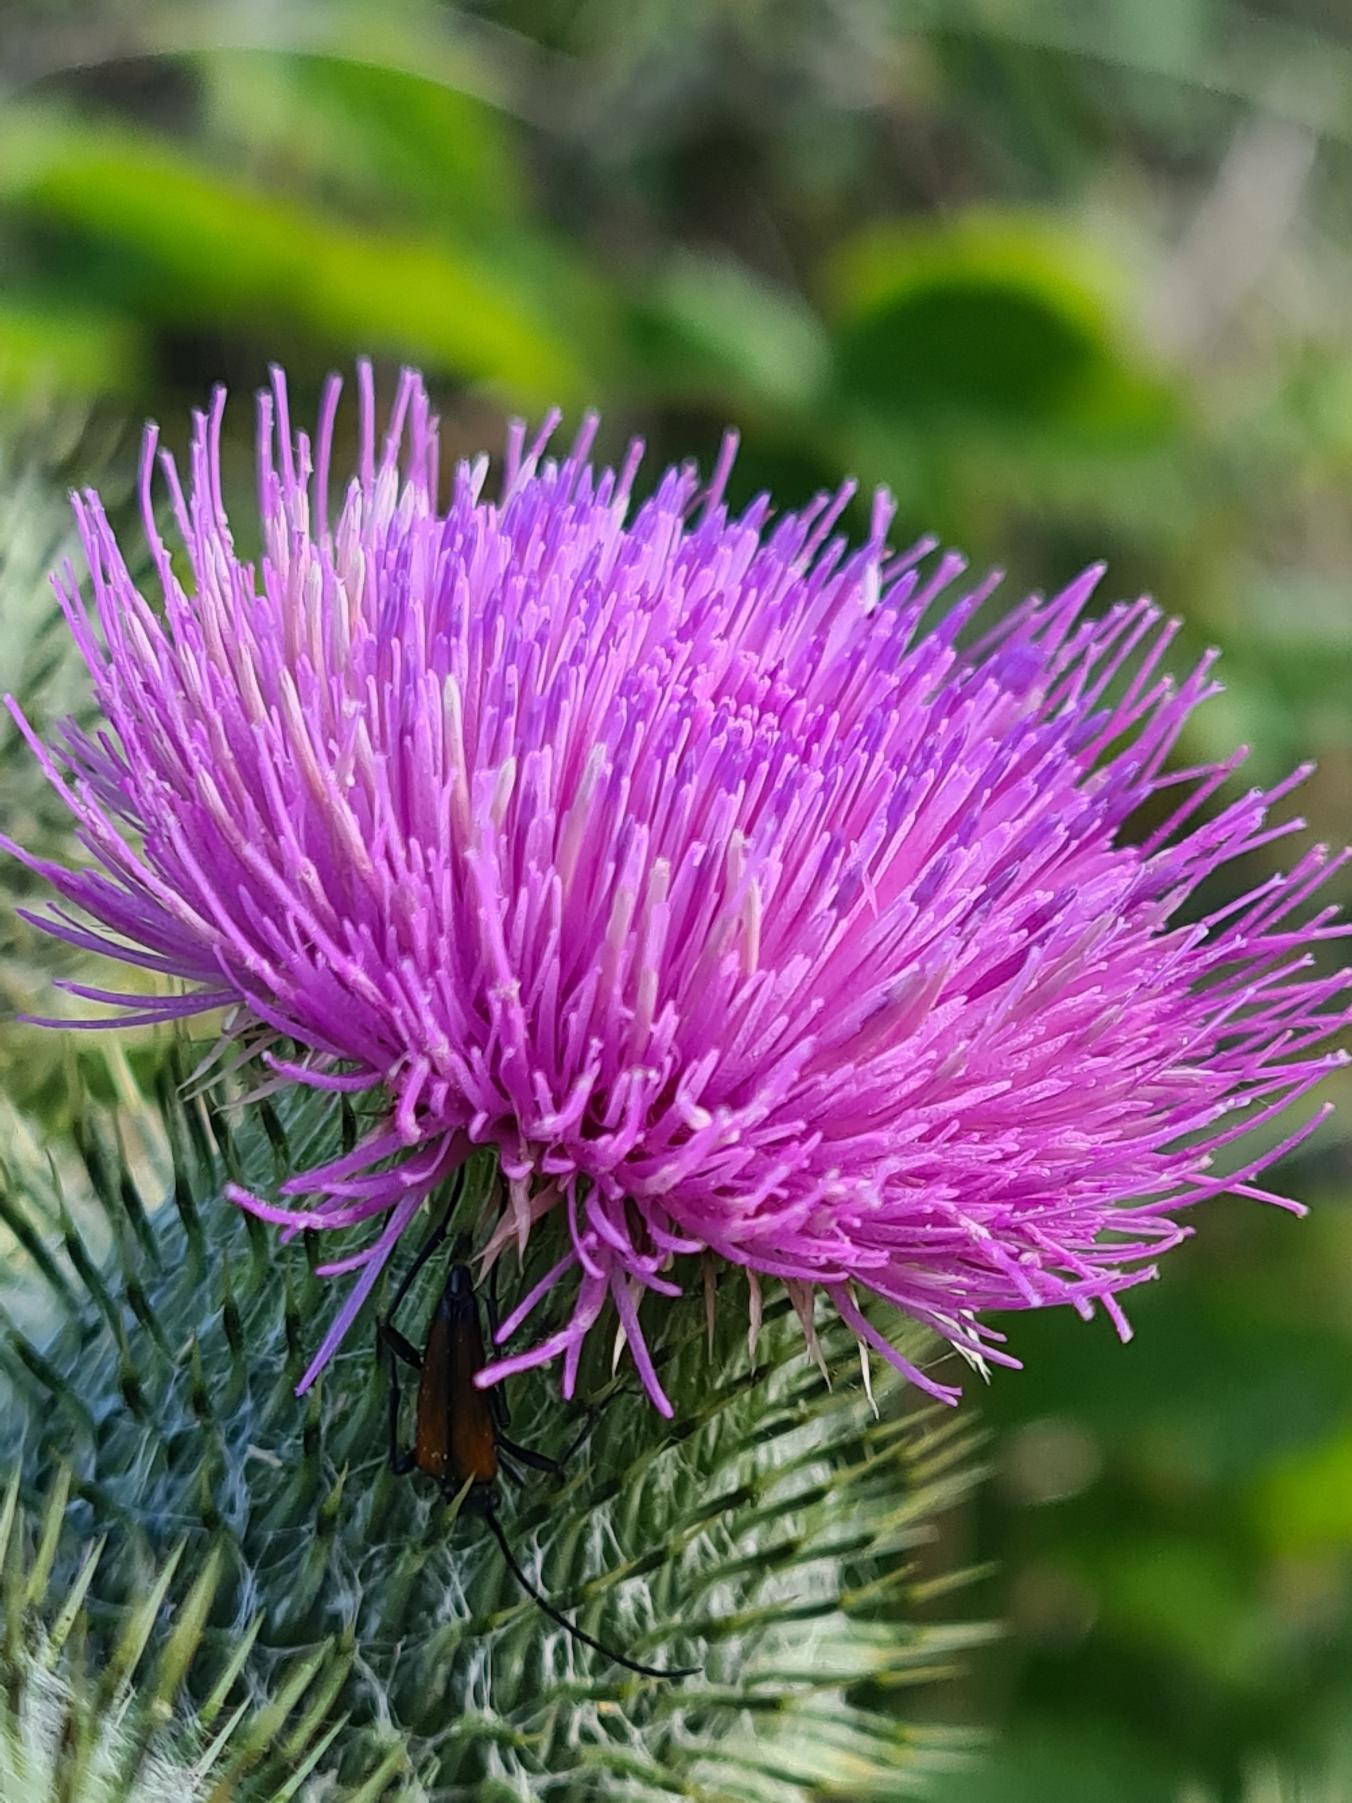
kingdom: Plantae
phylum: Tracheophyta
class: Magnoliopsida
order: Asterales
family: Asteraceae
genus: Cirsium
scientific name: Cirsium vulgare
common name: Horse-tidsel
